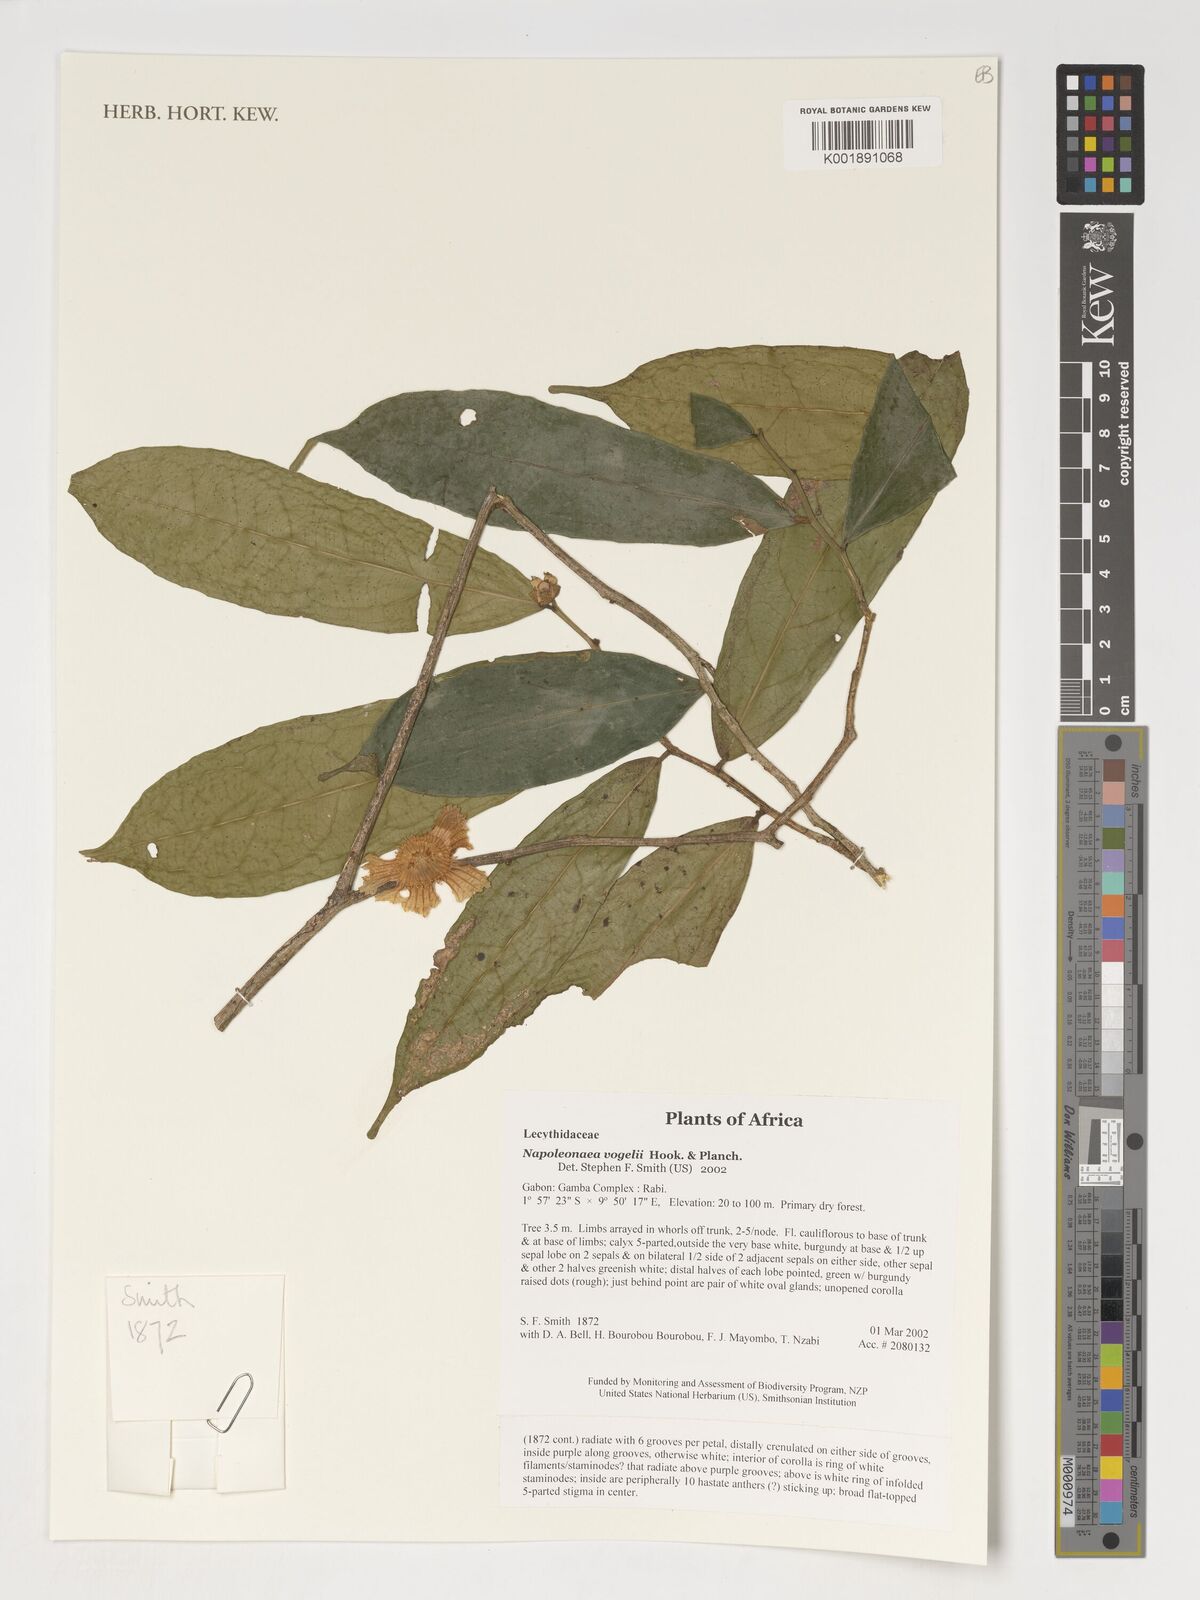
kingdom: Plantae
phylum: Tracheophyta
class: Magnoliopsida
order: Ericales
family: Lecythidaceae
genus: Napoleonaea
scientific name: Napoleonaea vogelii
